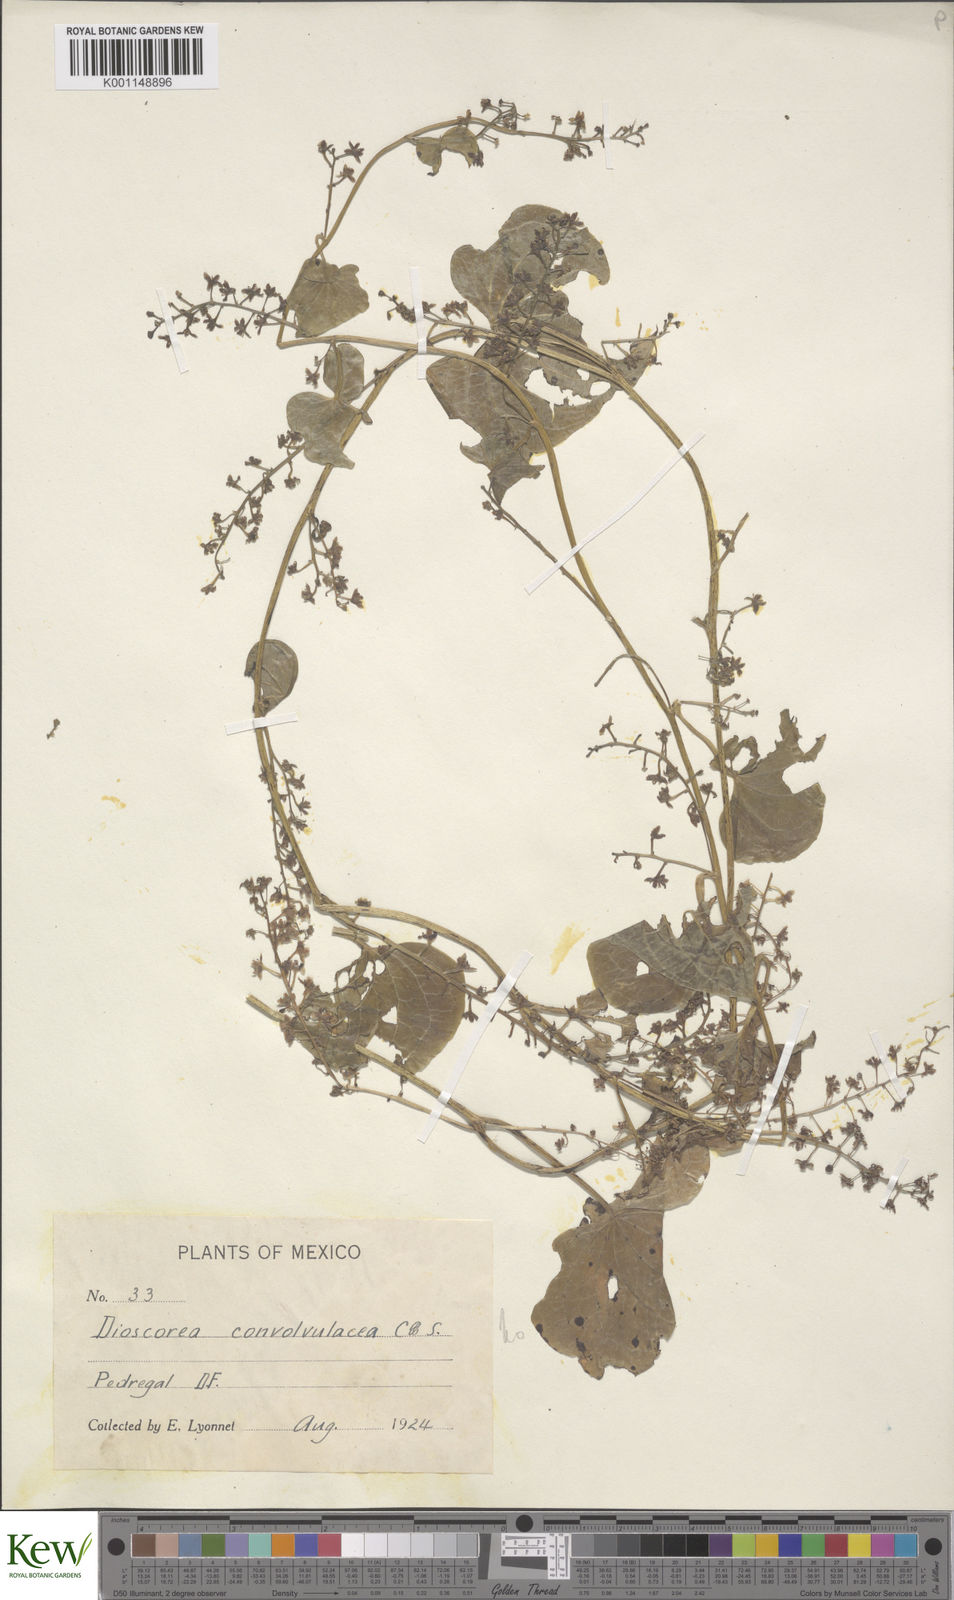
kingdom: Plantae
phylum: Tracheophyta
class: Liliopsida
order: Dioscoreales
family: Dioscoreaceae
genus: Dioscorea
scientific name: Dioscorea galeottiana
